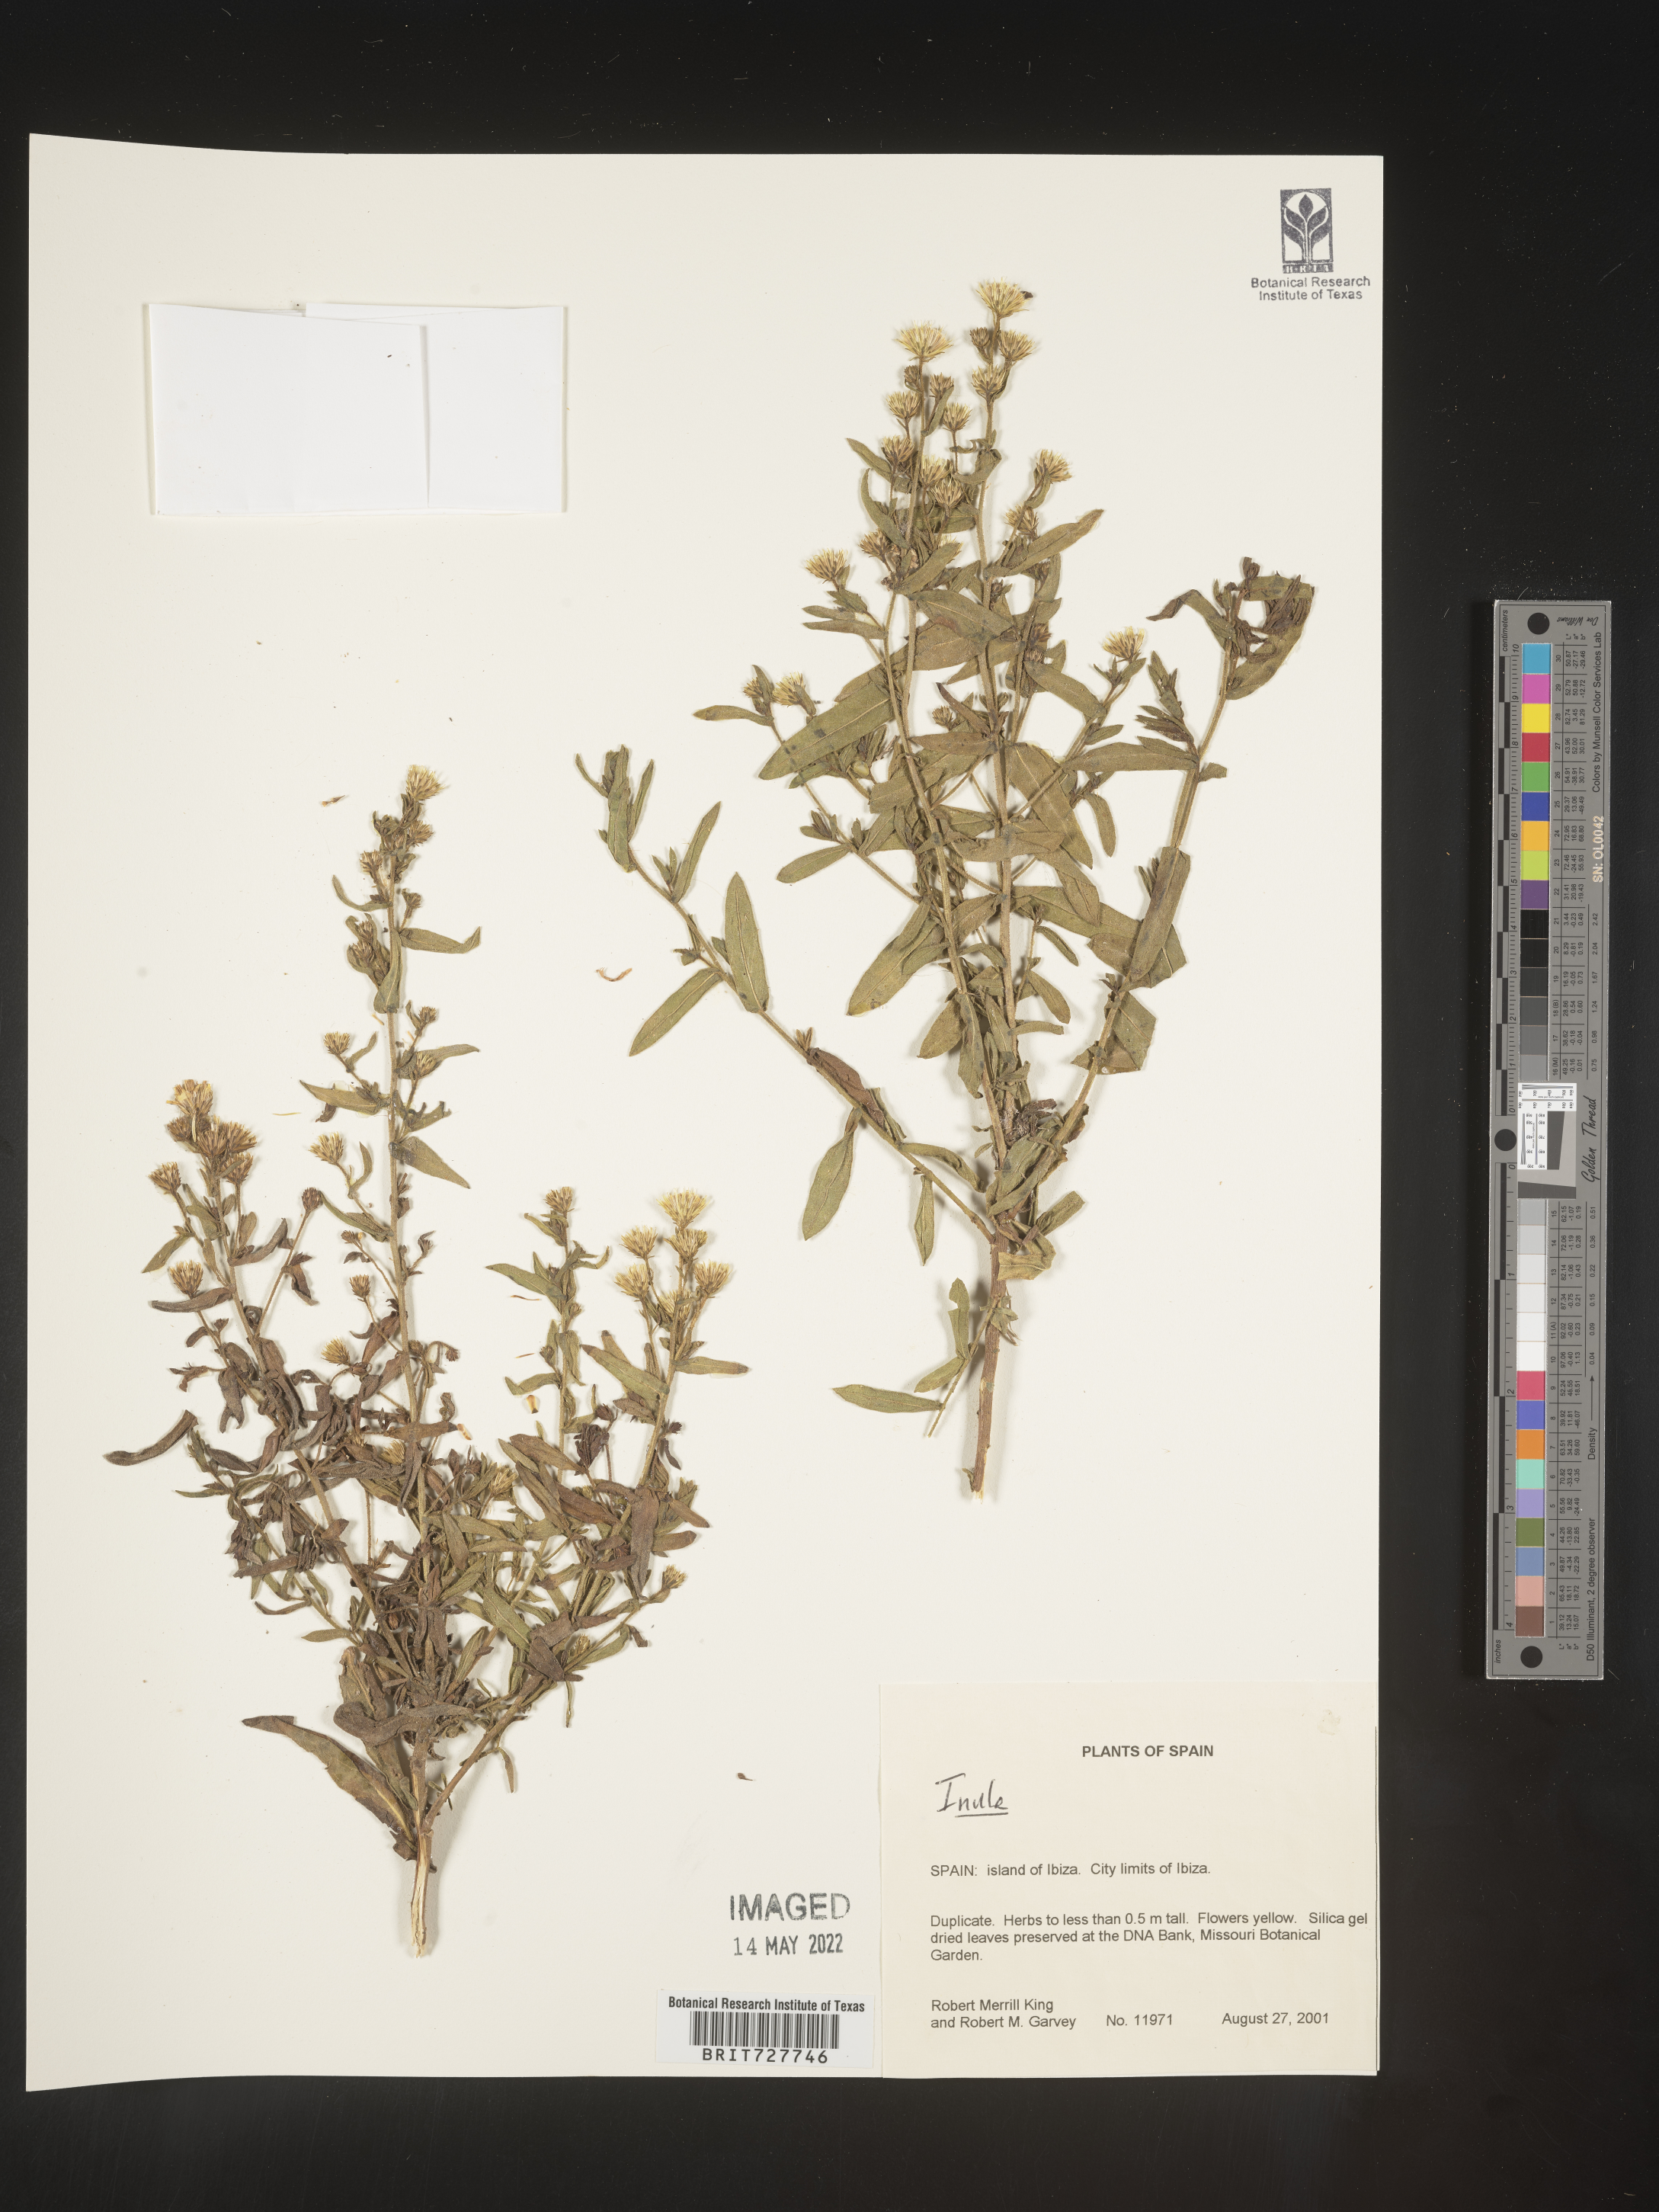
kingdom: Plantae
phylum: Tracheophyta
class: Magnoliopsida
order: Asterales
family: Asteraceae
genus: Inula
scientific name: Inula
